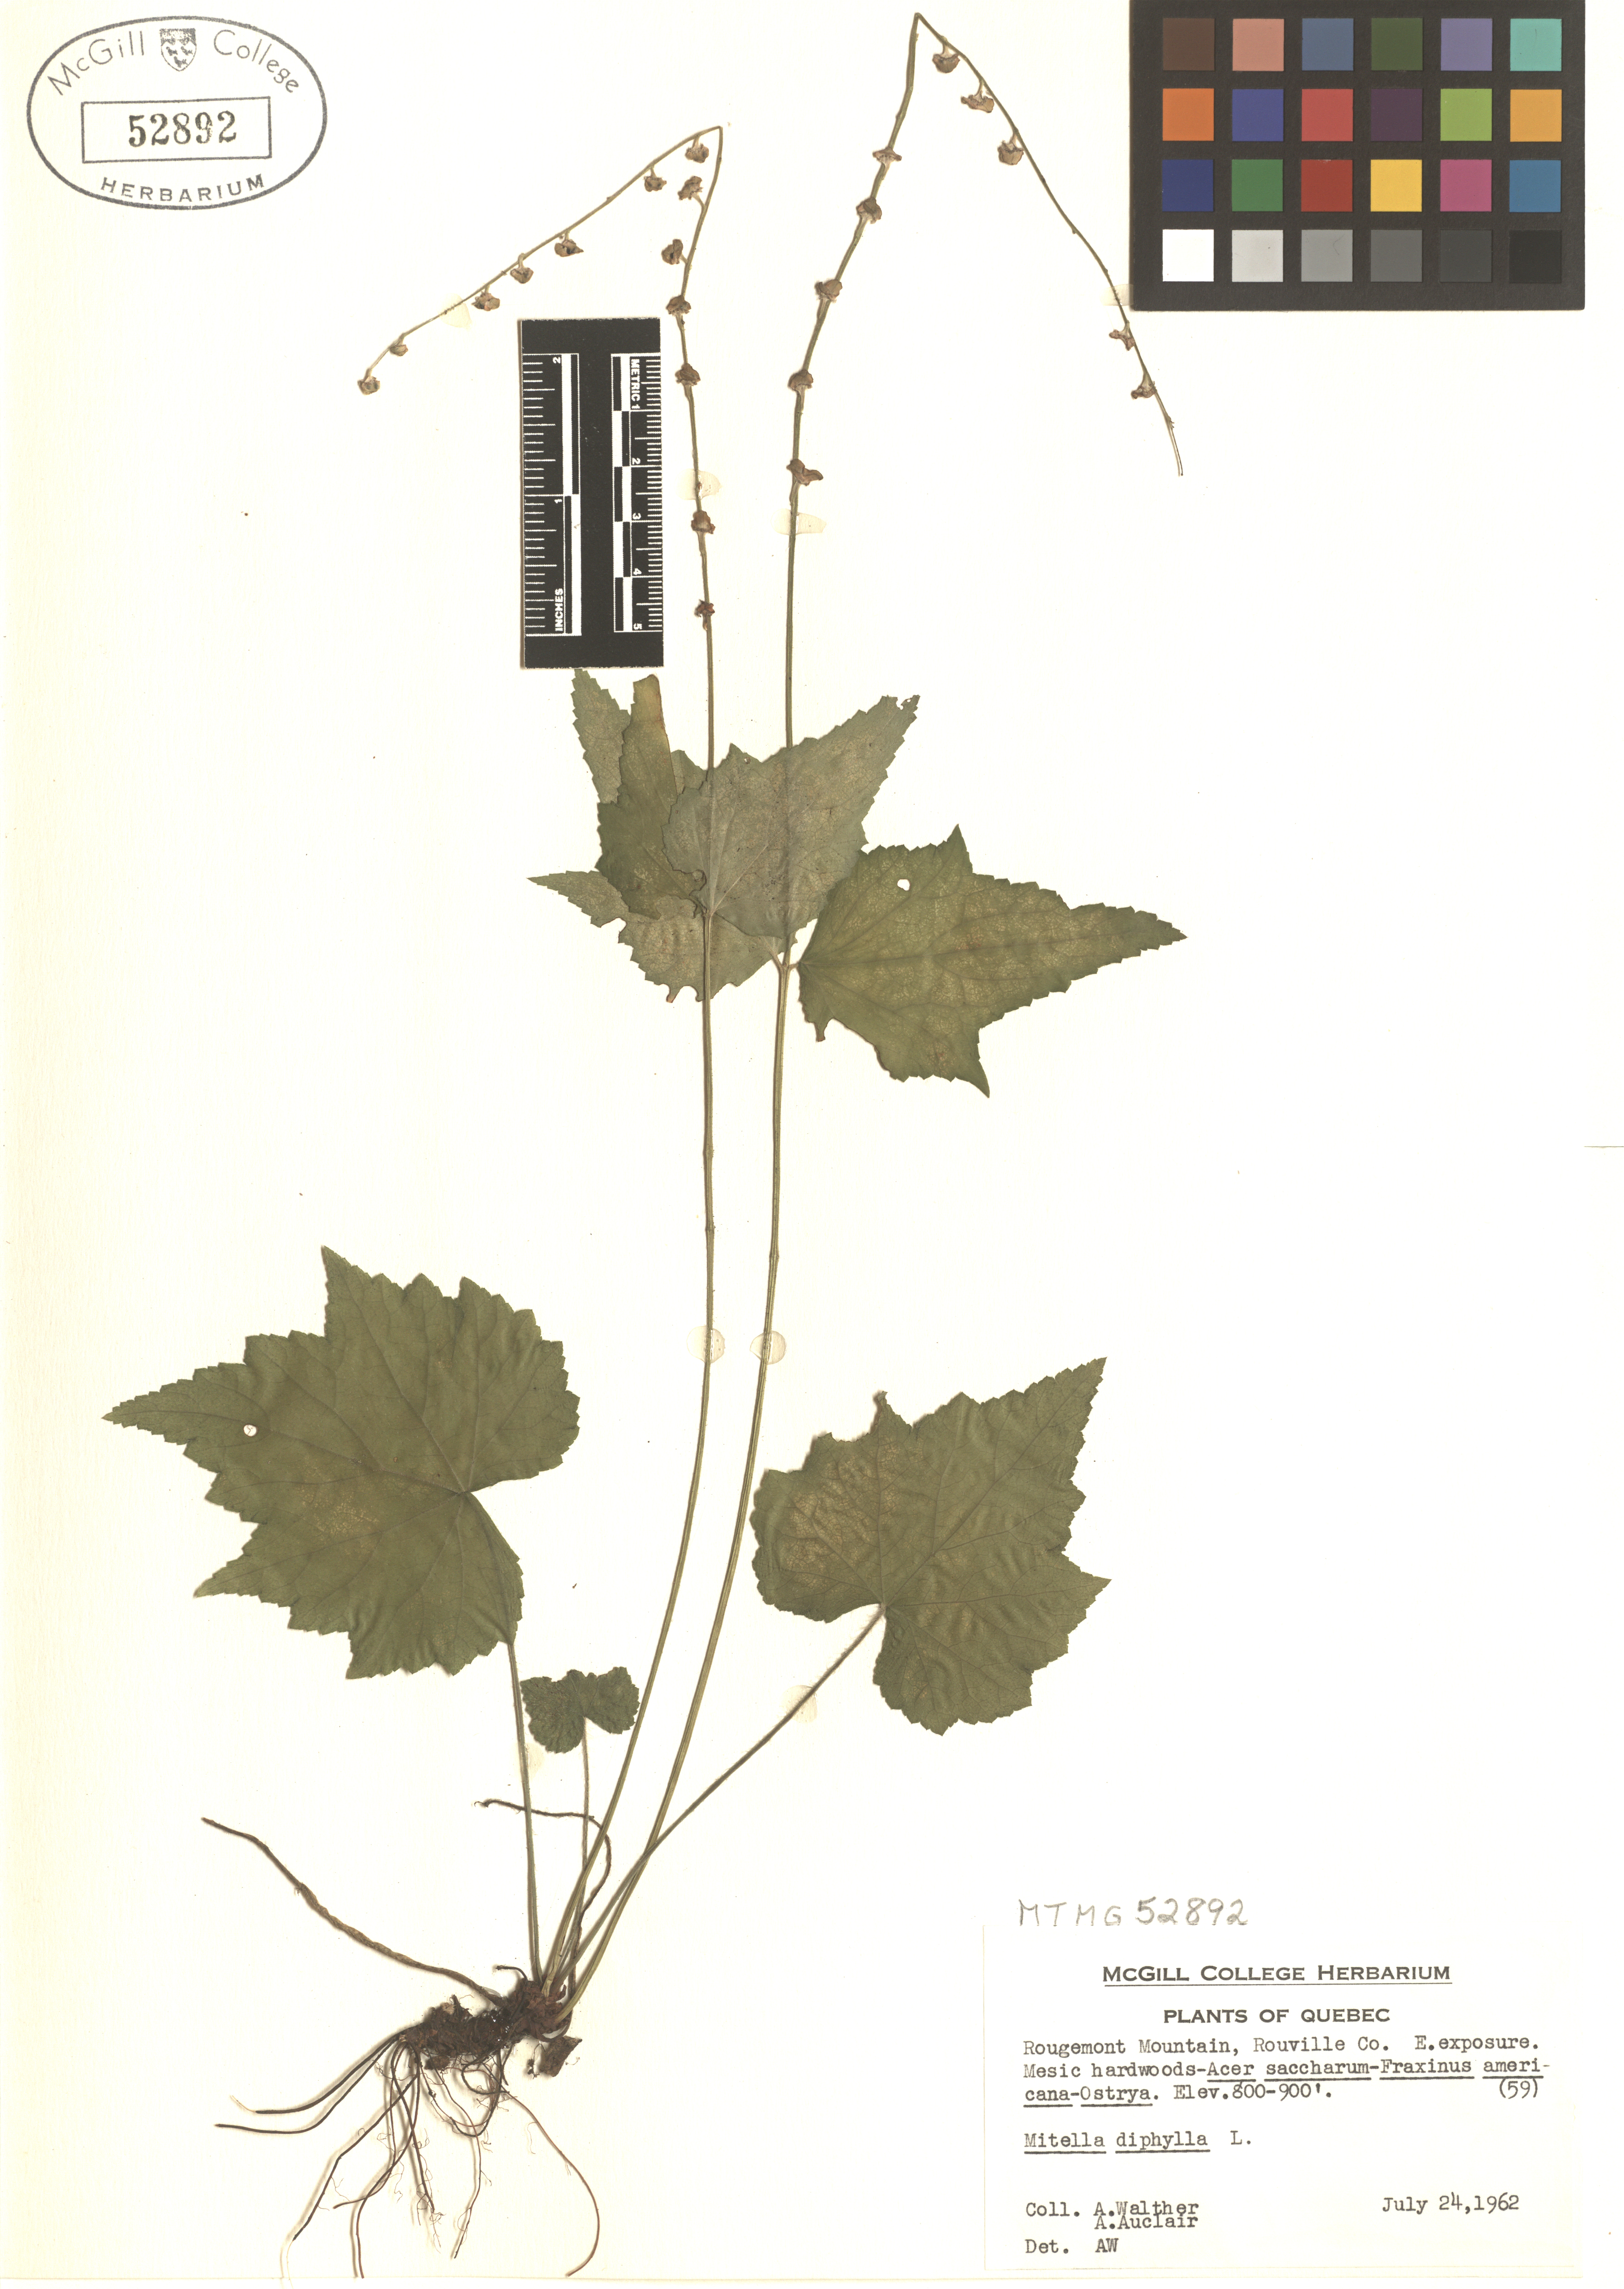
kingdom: Plantae
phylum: Tracheophyta
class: Magnoliopsida
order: Saxifragales
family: Saxifragaceae
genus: Mitella
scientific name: Mitella diphylla
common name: Coolwort
